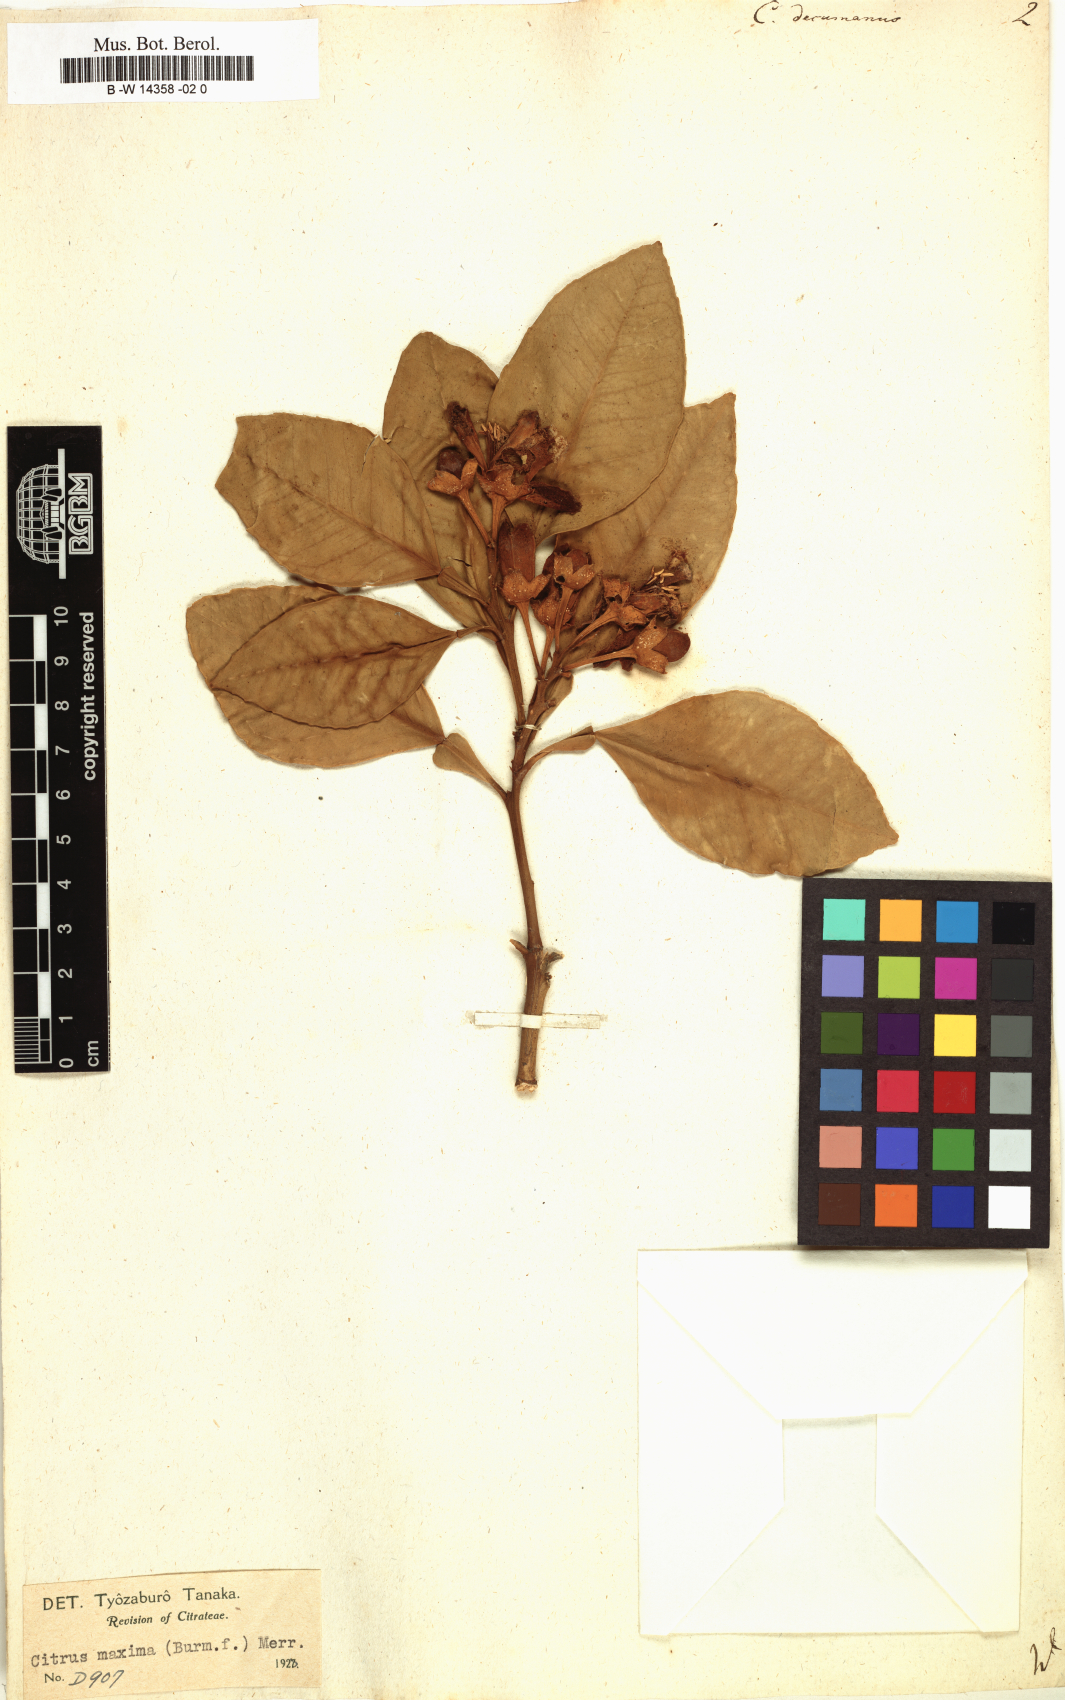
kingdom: Plantae
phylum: Tracheophyta
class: Magnoliopsida
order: Sapindales
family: Rutaceae
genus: Citrus
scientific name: Citrus maxima
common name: Pomelo
